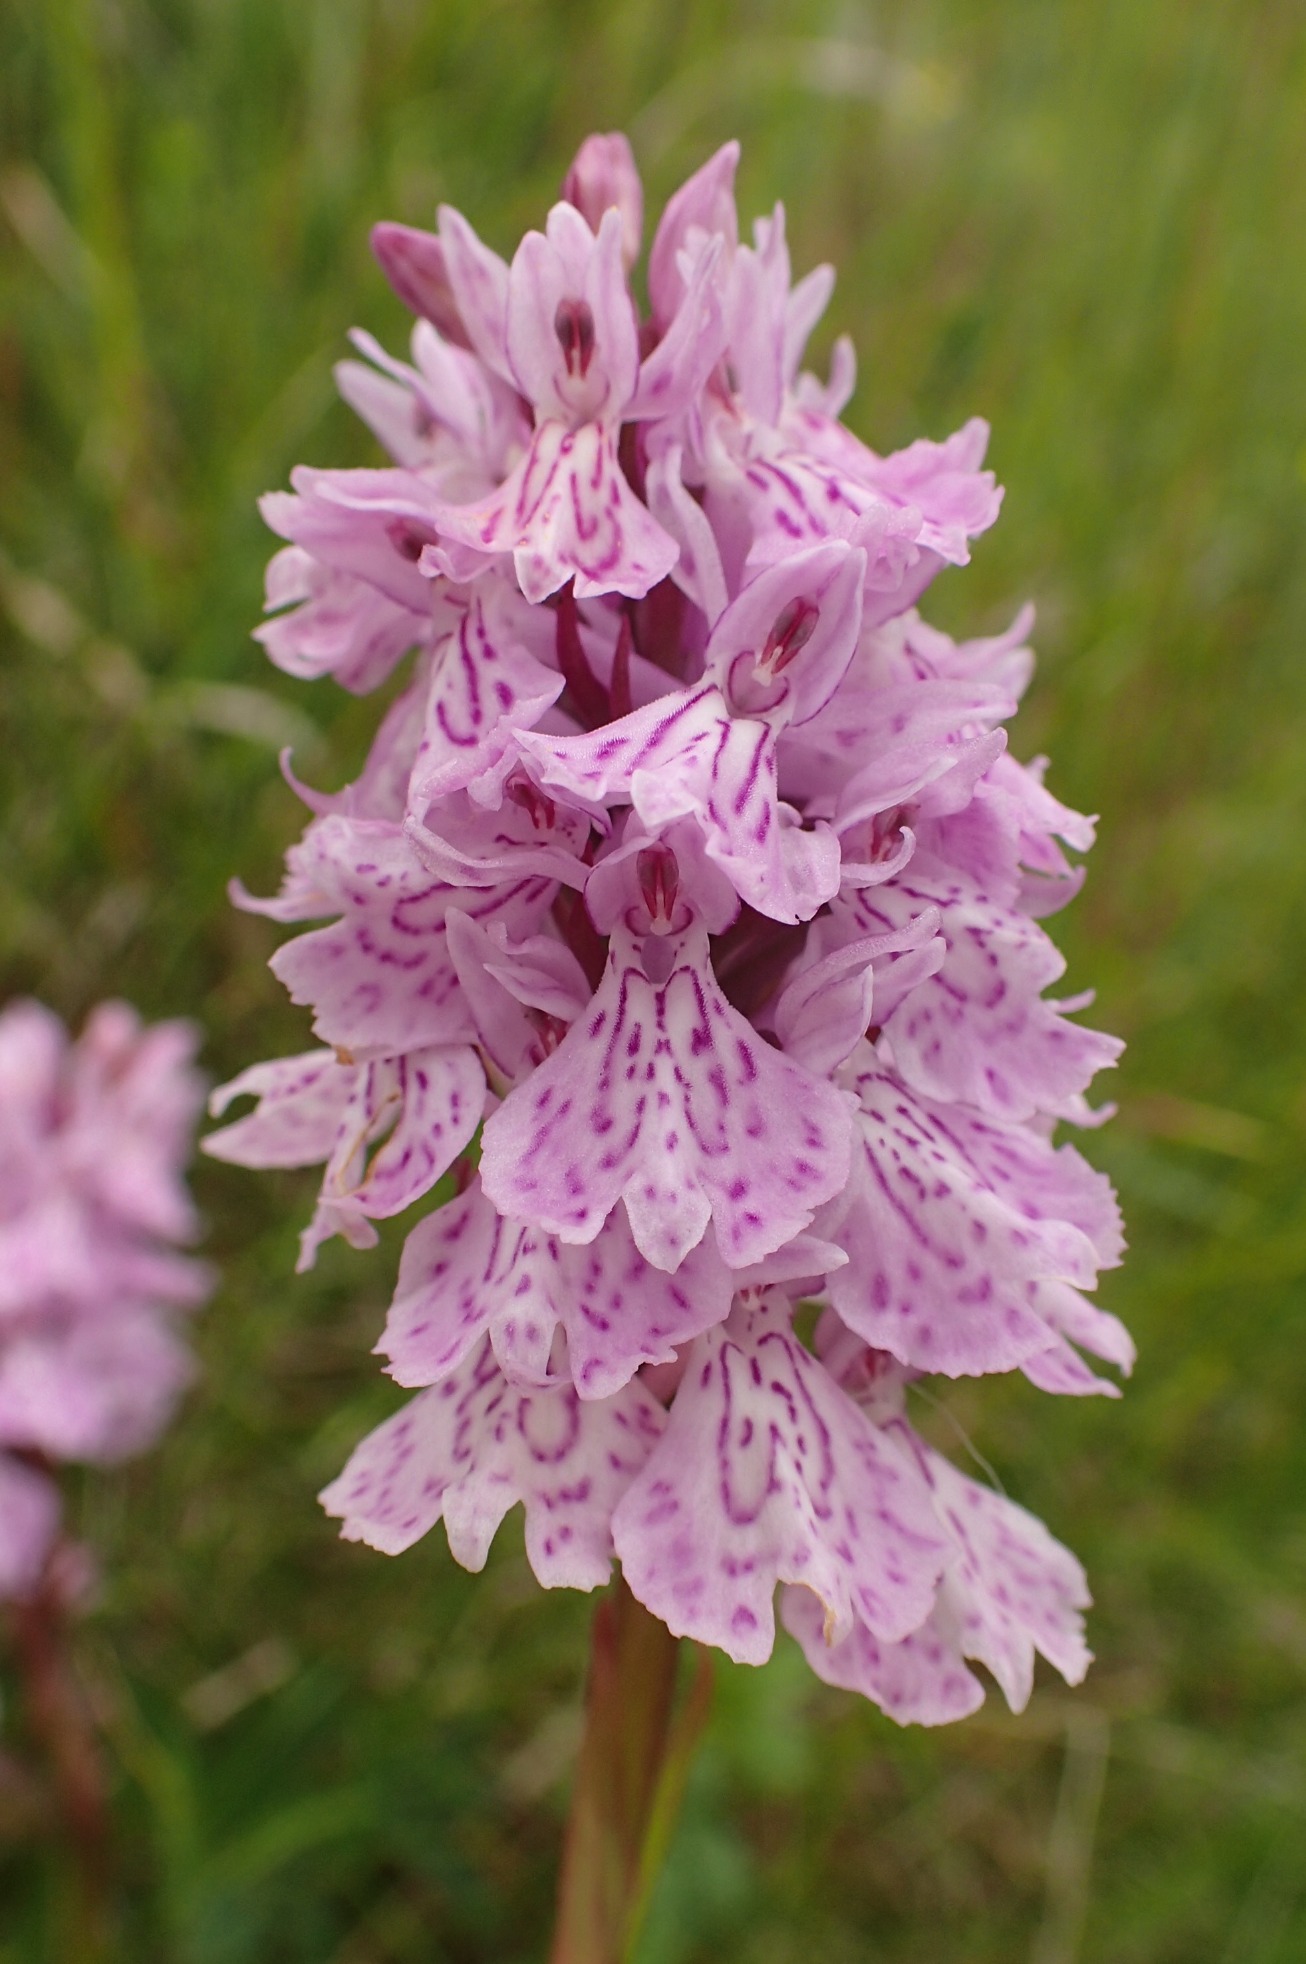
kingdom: Plantae
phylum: Tracheophyta
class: Liliopsida
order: Asparagales
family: Orchidaceae
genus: Dactylorhiza
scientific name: Dactylorhiza maculata
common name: Plettet gøgeurt
